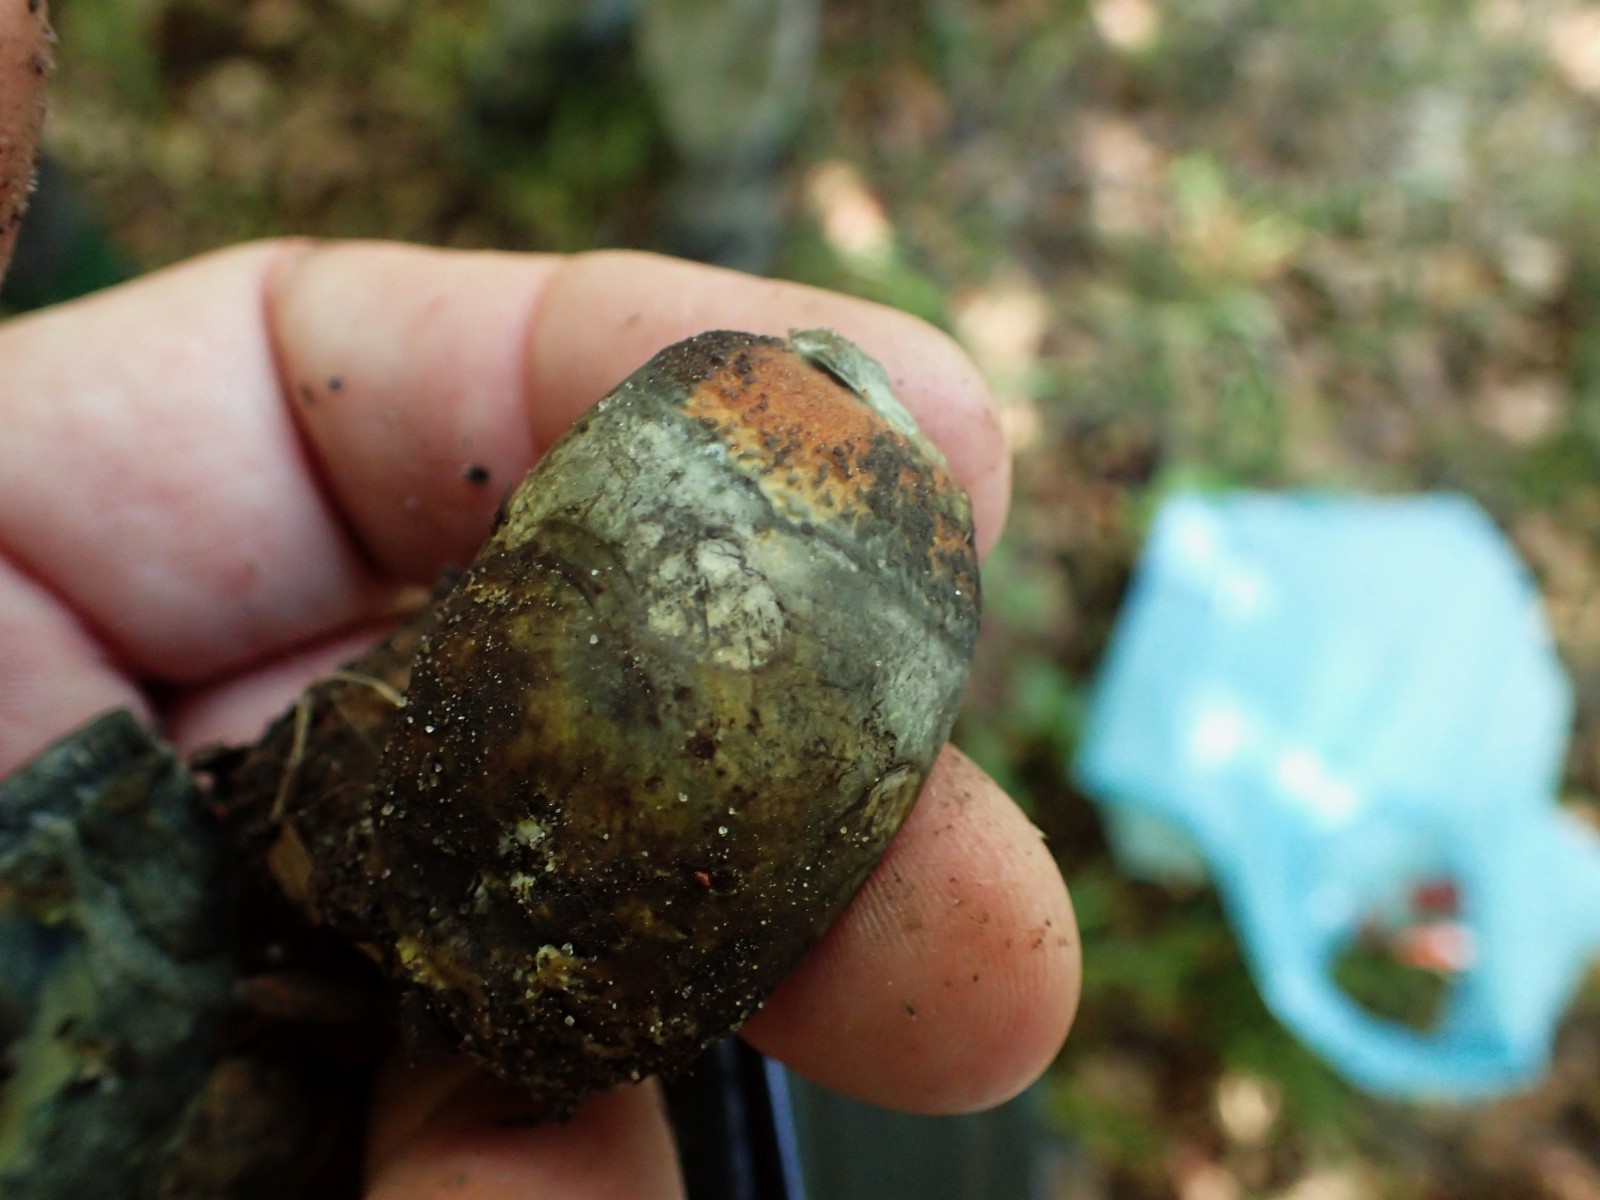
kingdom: Fungi
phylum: Basidiomycota
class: Agaricomycetes
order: Boletales
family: Boletaceae
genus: Neoboletus
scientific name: Neoboletus erythropus
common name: punktstokket indigorørhat
